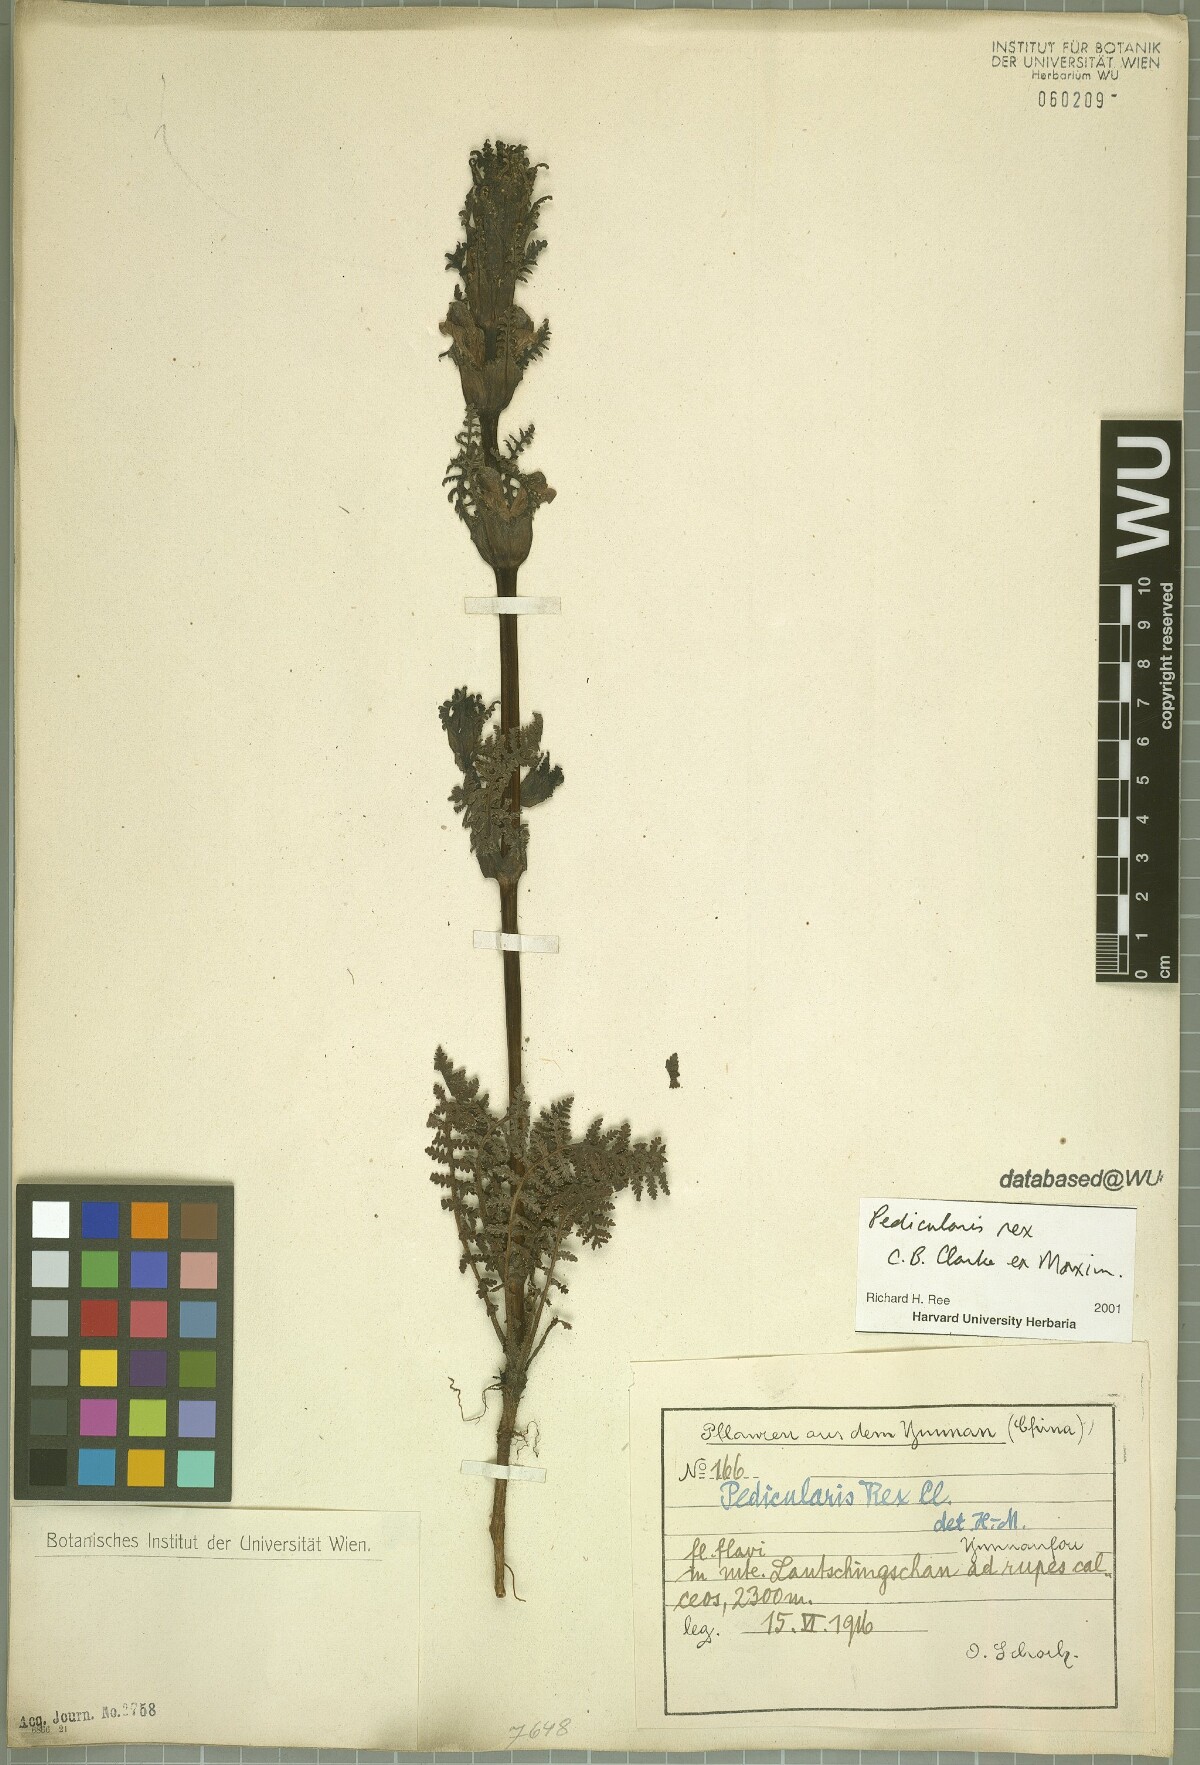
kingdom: Plantae
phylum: Tracheophyta
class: Magnoliopsida
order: Lamiales
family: Orobanchaceae
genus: Pedicularis
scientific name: Pedicularis rex
